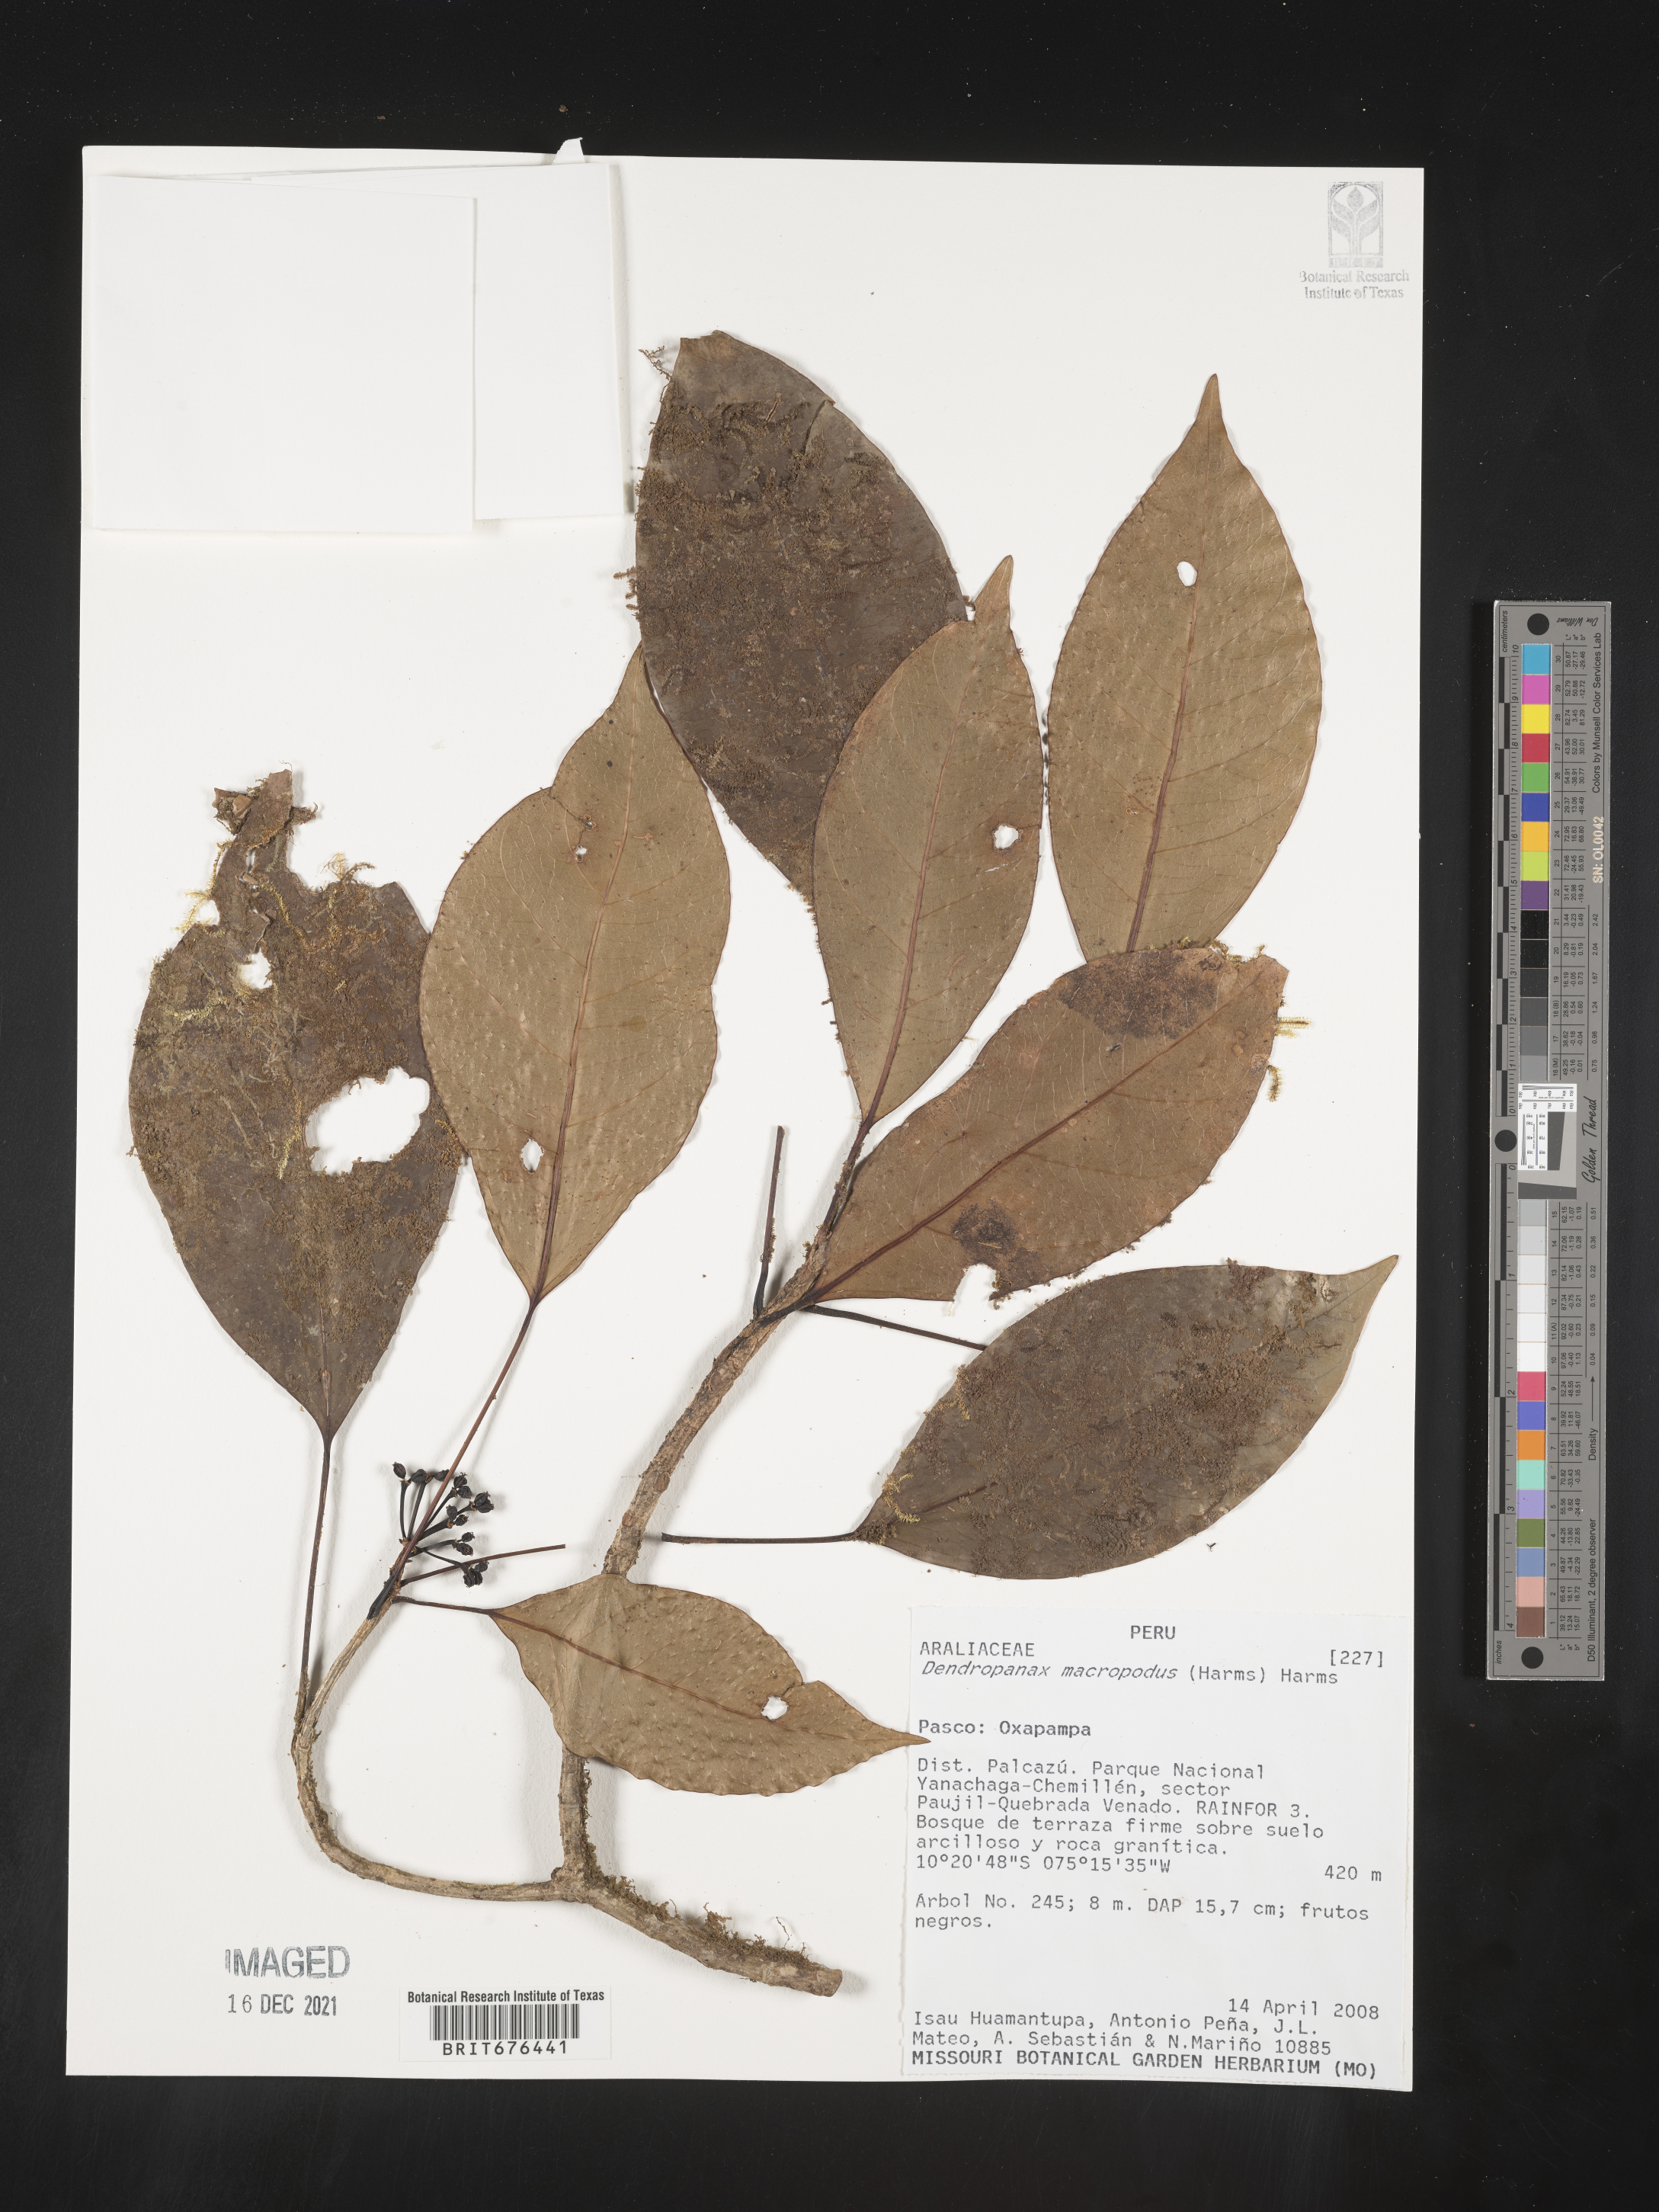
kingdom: Plantae
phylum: Tracheophyta
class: Magnoliopsida
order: Apiales
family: Araliaceae
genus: Dendropanax
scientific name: Dendropanax
